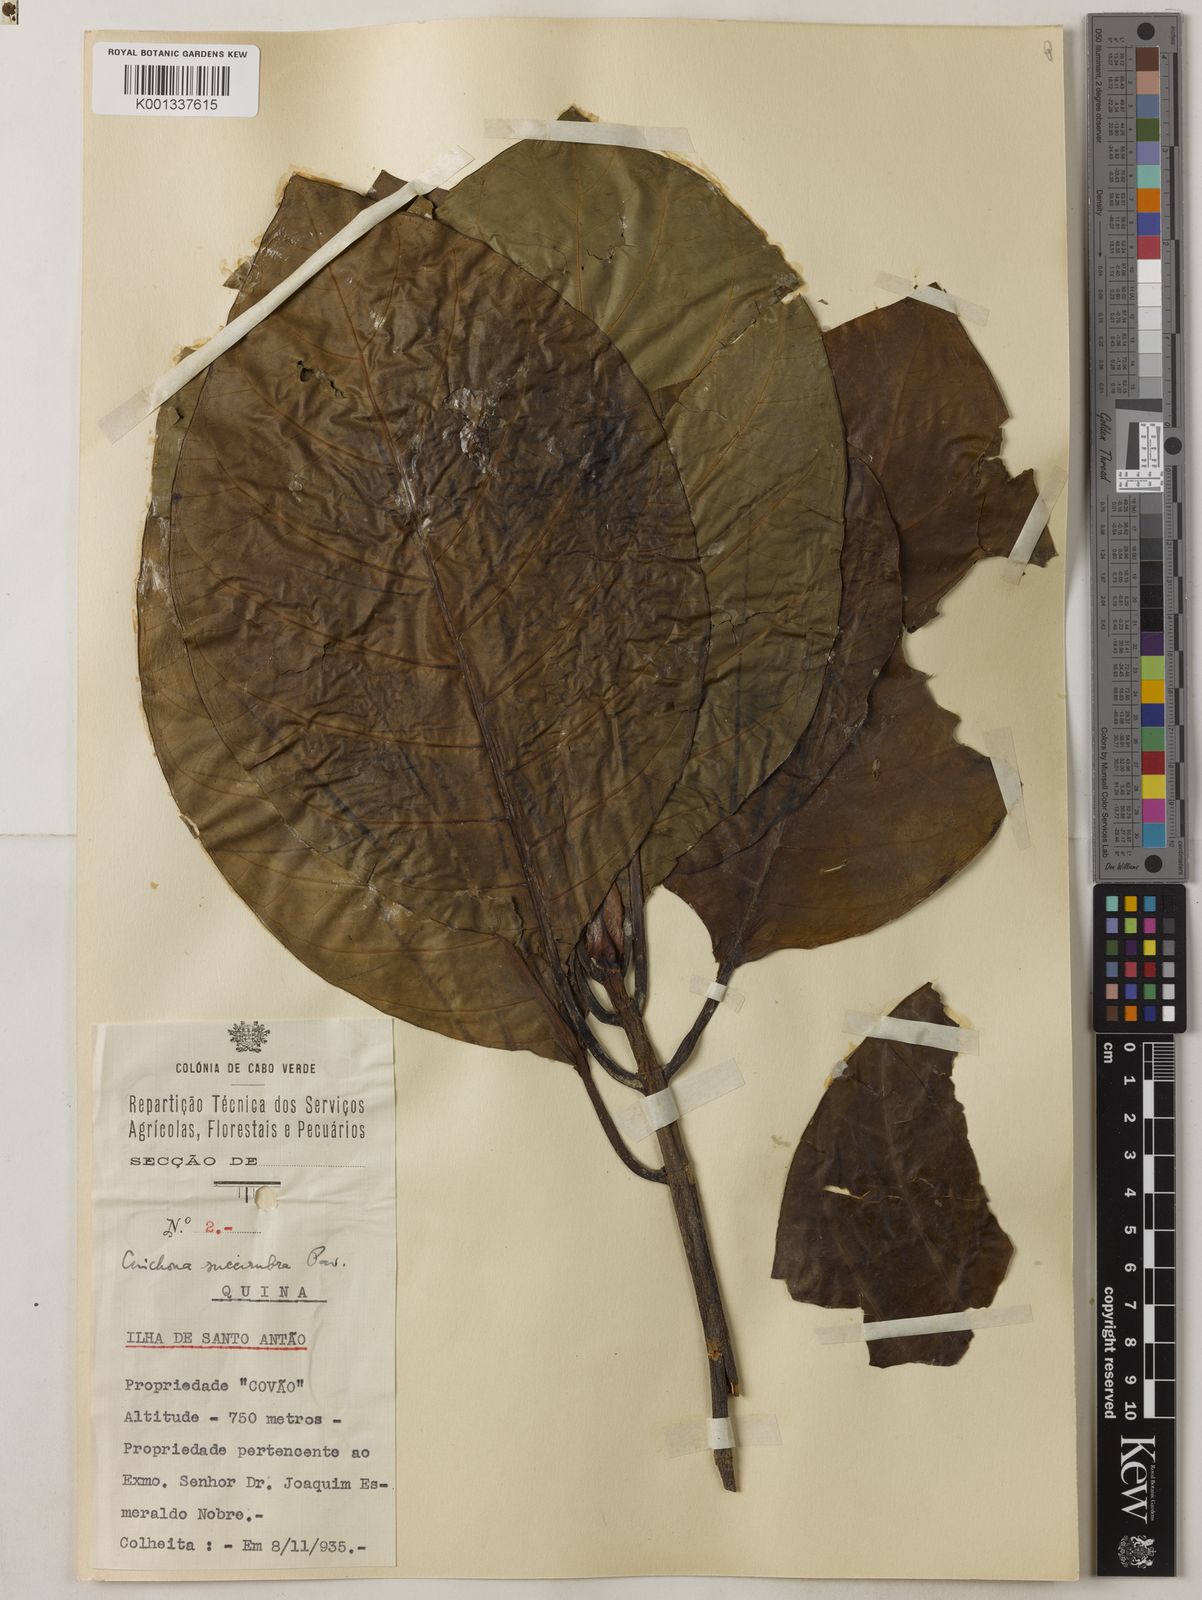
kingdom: Plantae
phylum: Tracheophyta
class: Magnoliopsida
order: Gentianales
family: Rubiaceae
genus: Cinchona
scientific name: Cinchona pubescens
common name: Quinine
